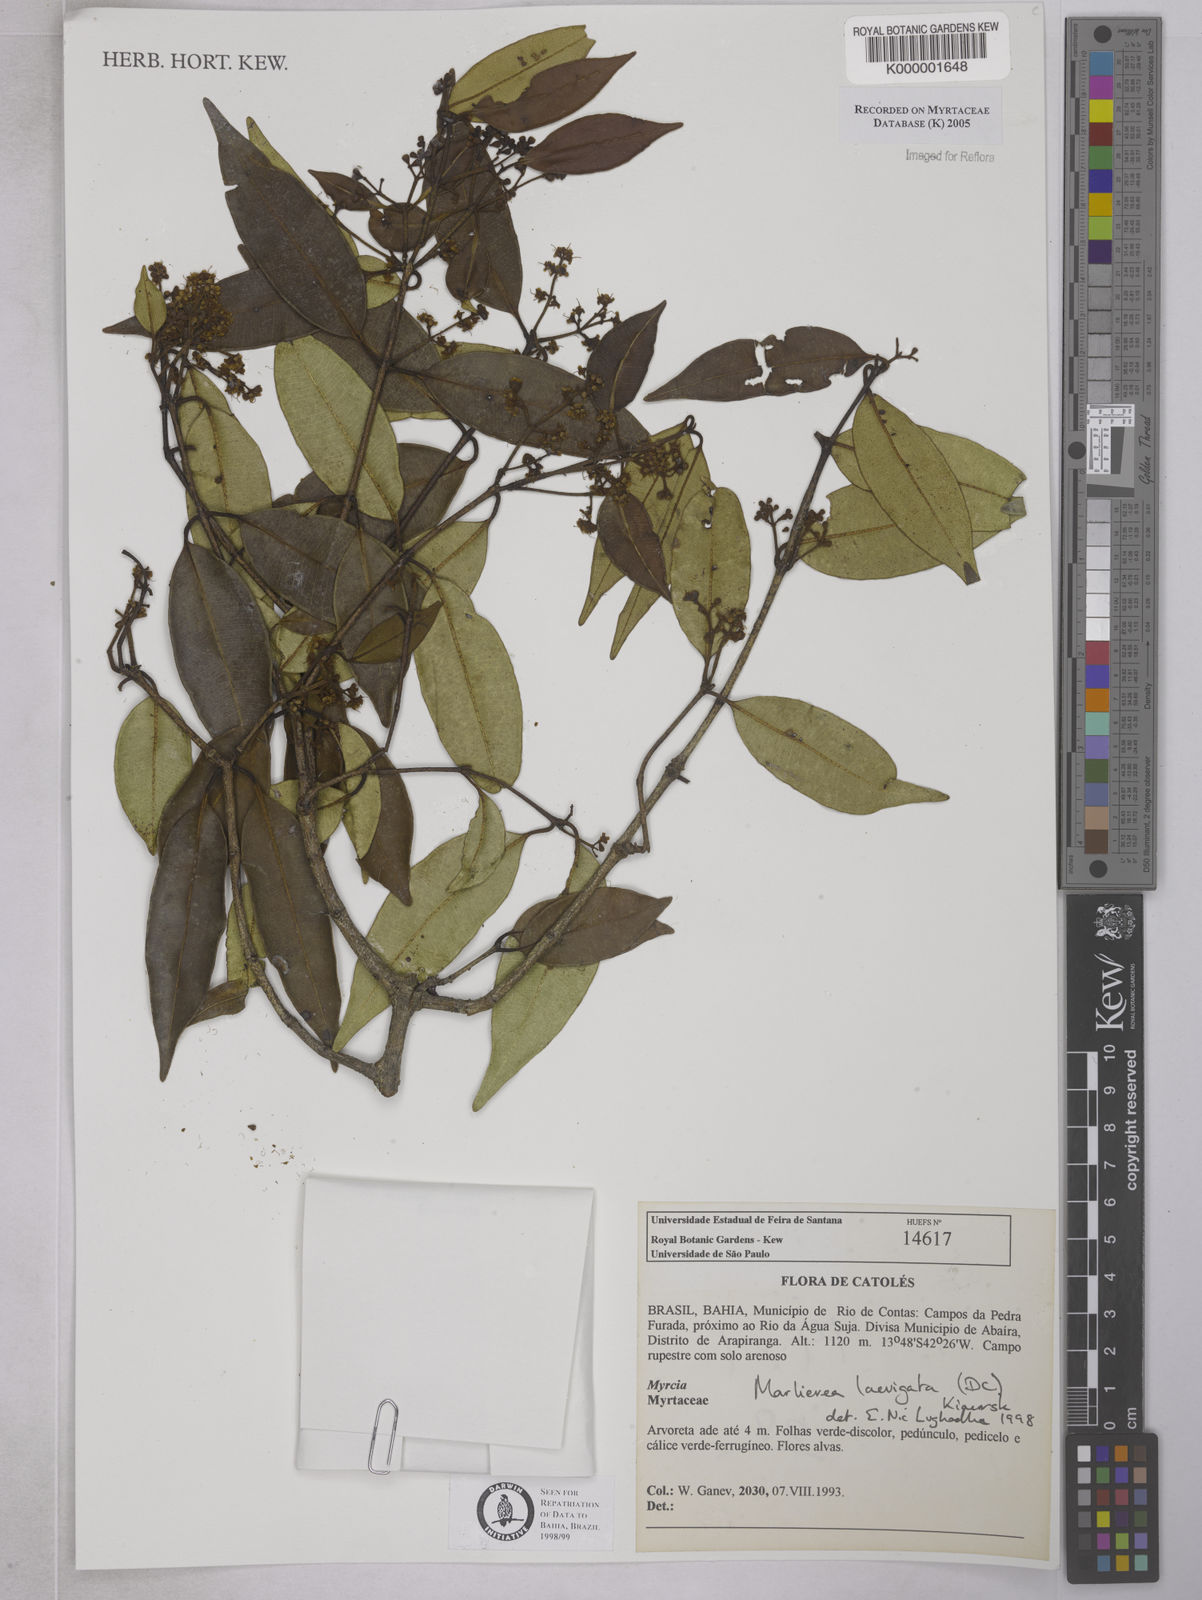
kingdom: Plantae
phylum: Tracheophyta
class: Magnoliopsida
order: Myrtales
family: Myrtaceae
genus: Myrcia
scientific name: Myrcia multipunctata
